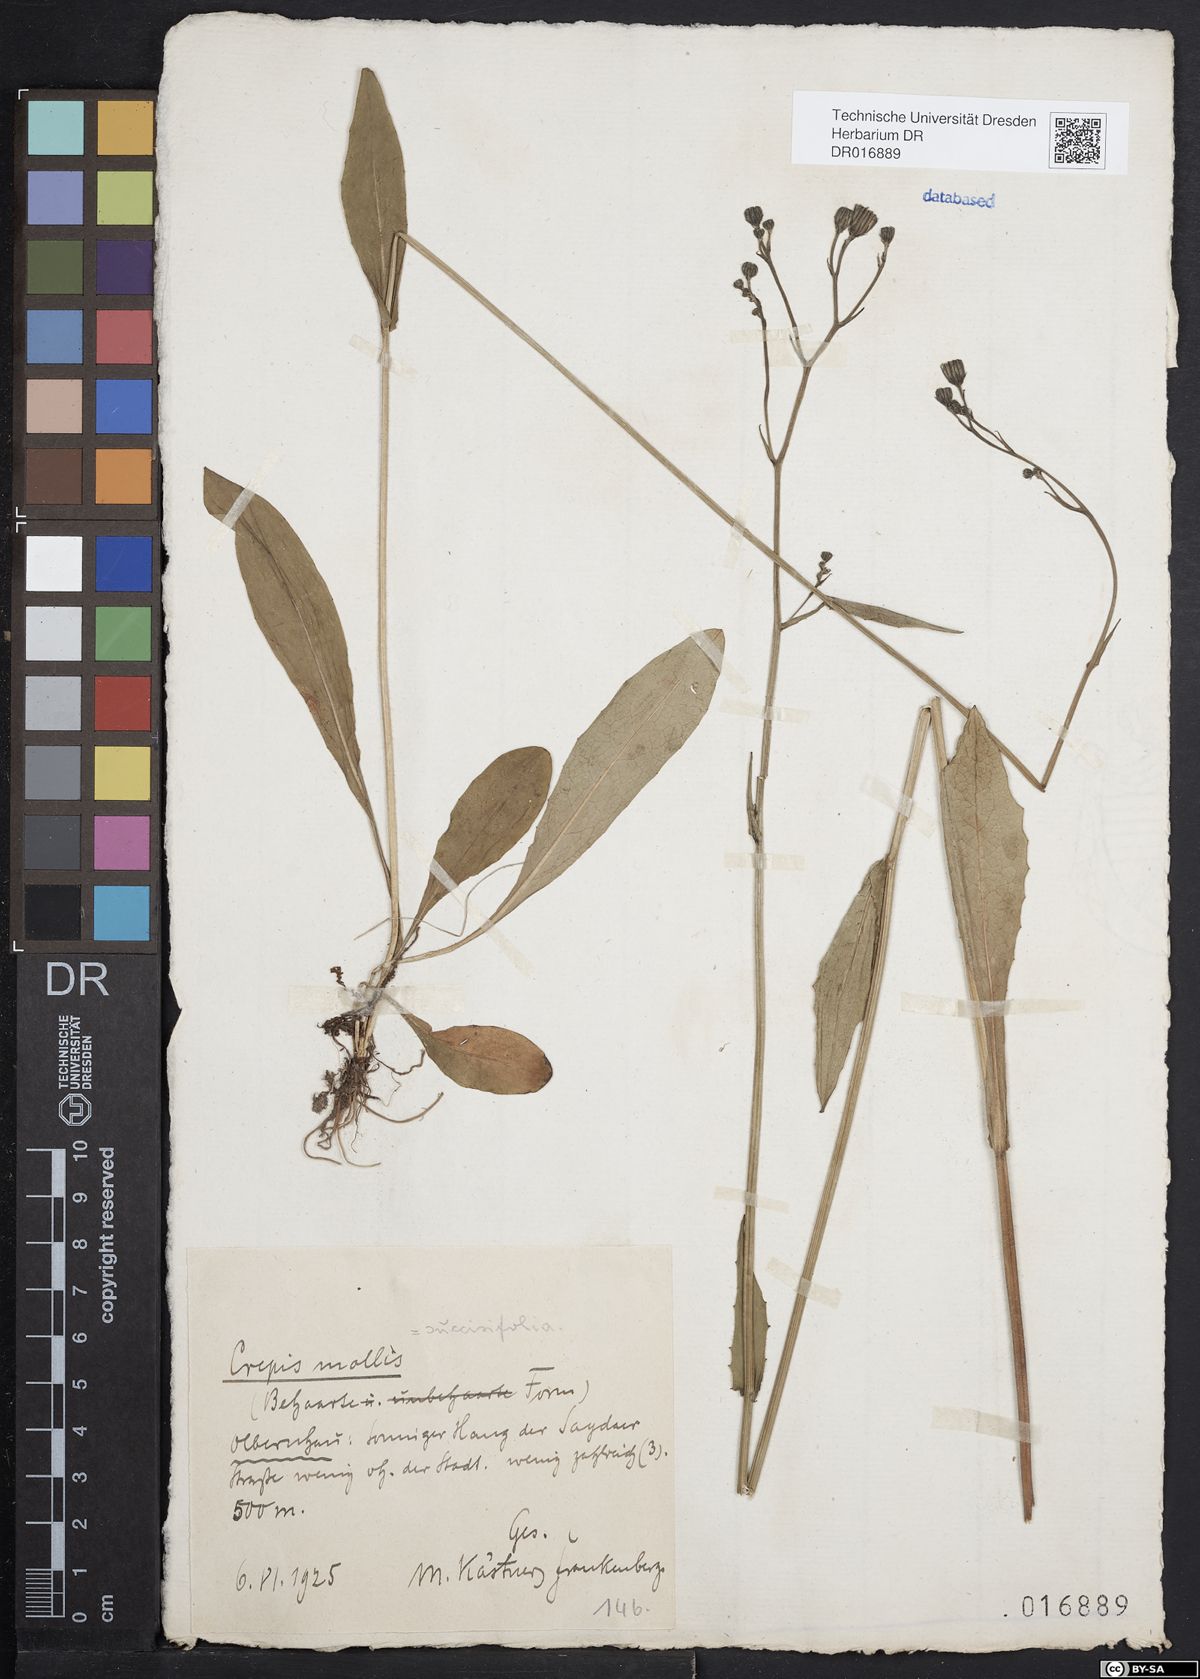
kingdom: Plantae
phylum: Tracheophyta
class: Magnoliopsida
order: Asterales
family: Asteraceae
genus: Crepis
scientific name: Crepis mollis
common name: Northern hawk's-beard
